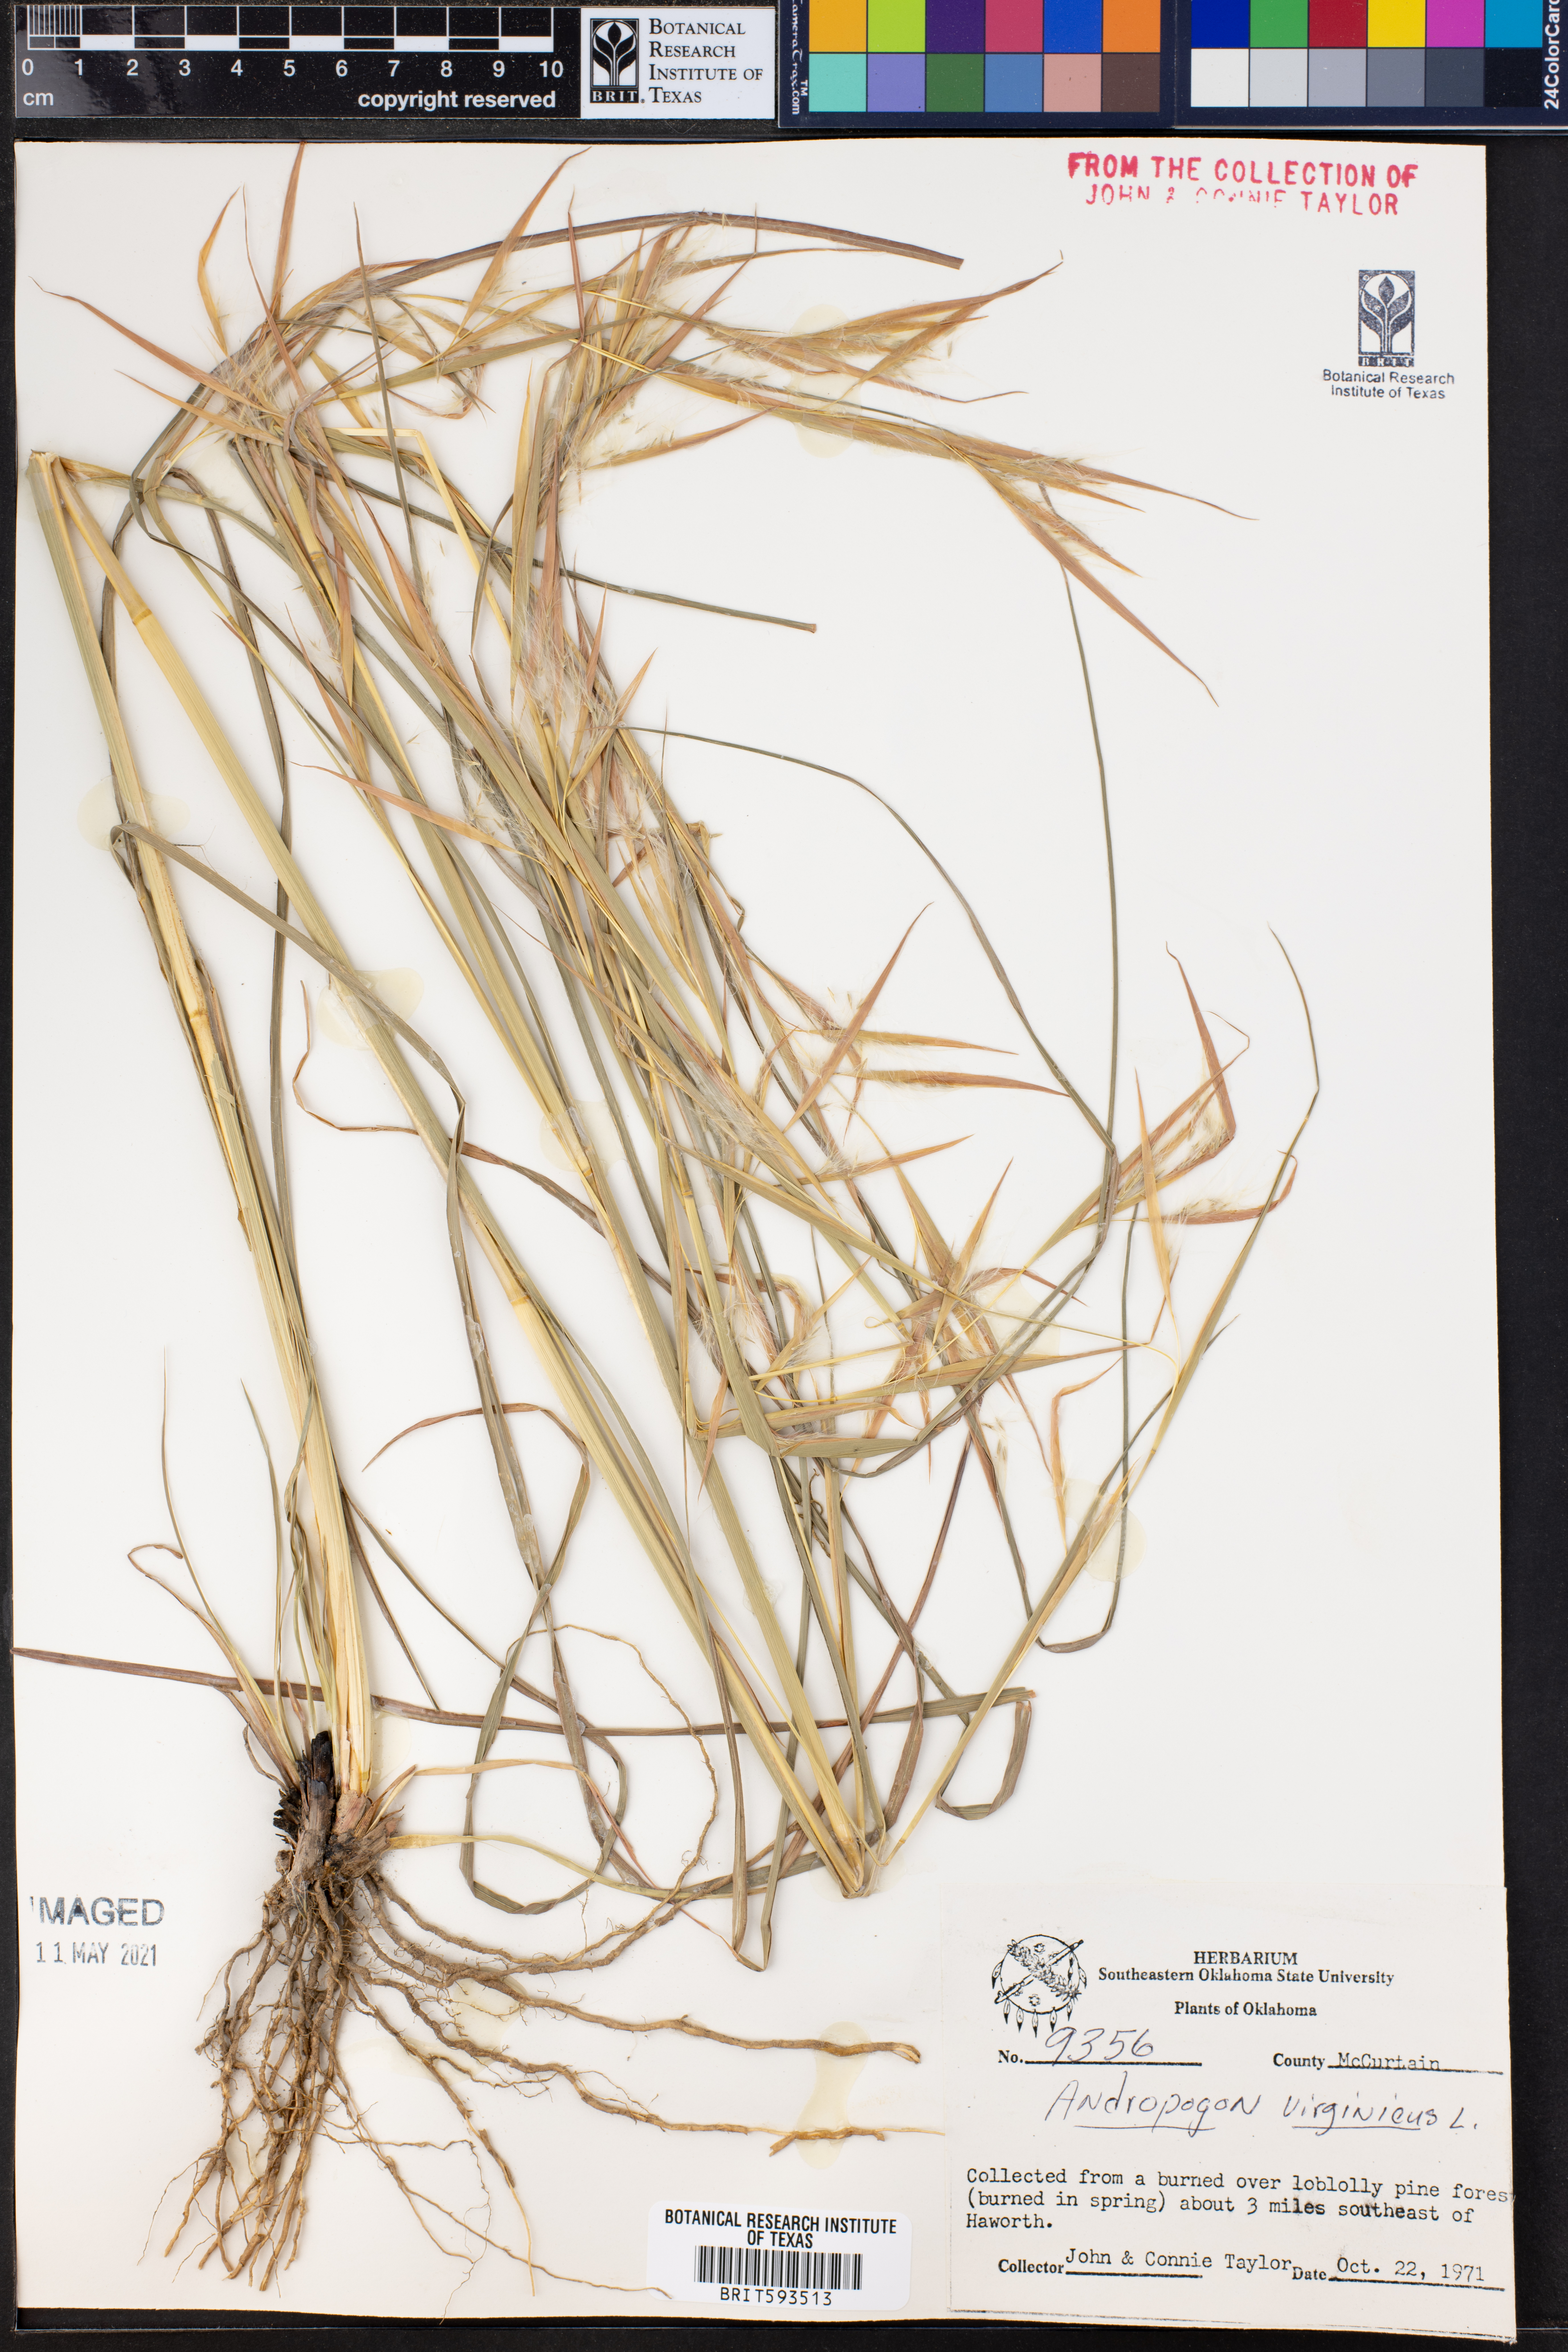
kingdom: Plantae
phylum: Tracheophyta
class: Liliopsida
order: Poales
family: Poaceae
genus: Andropogon
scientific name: Andropogon virginicus
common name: Broomsedge bluestem
